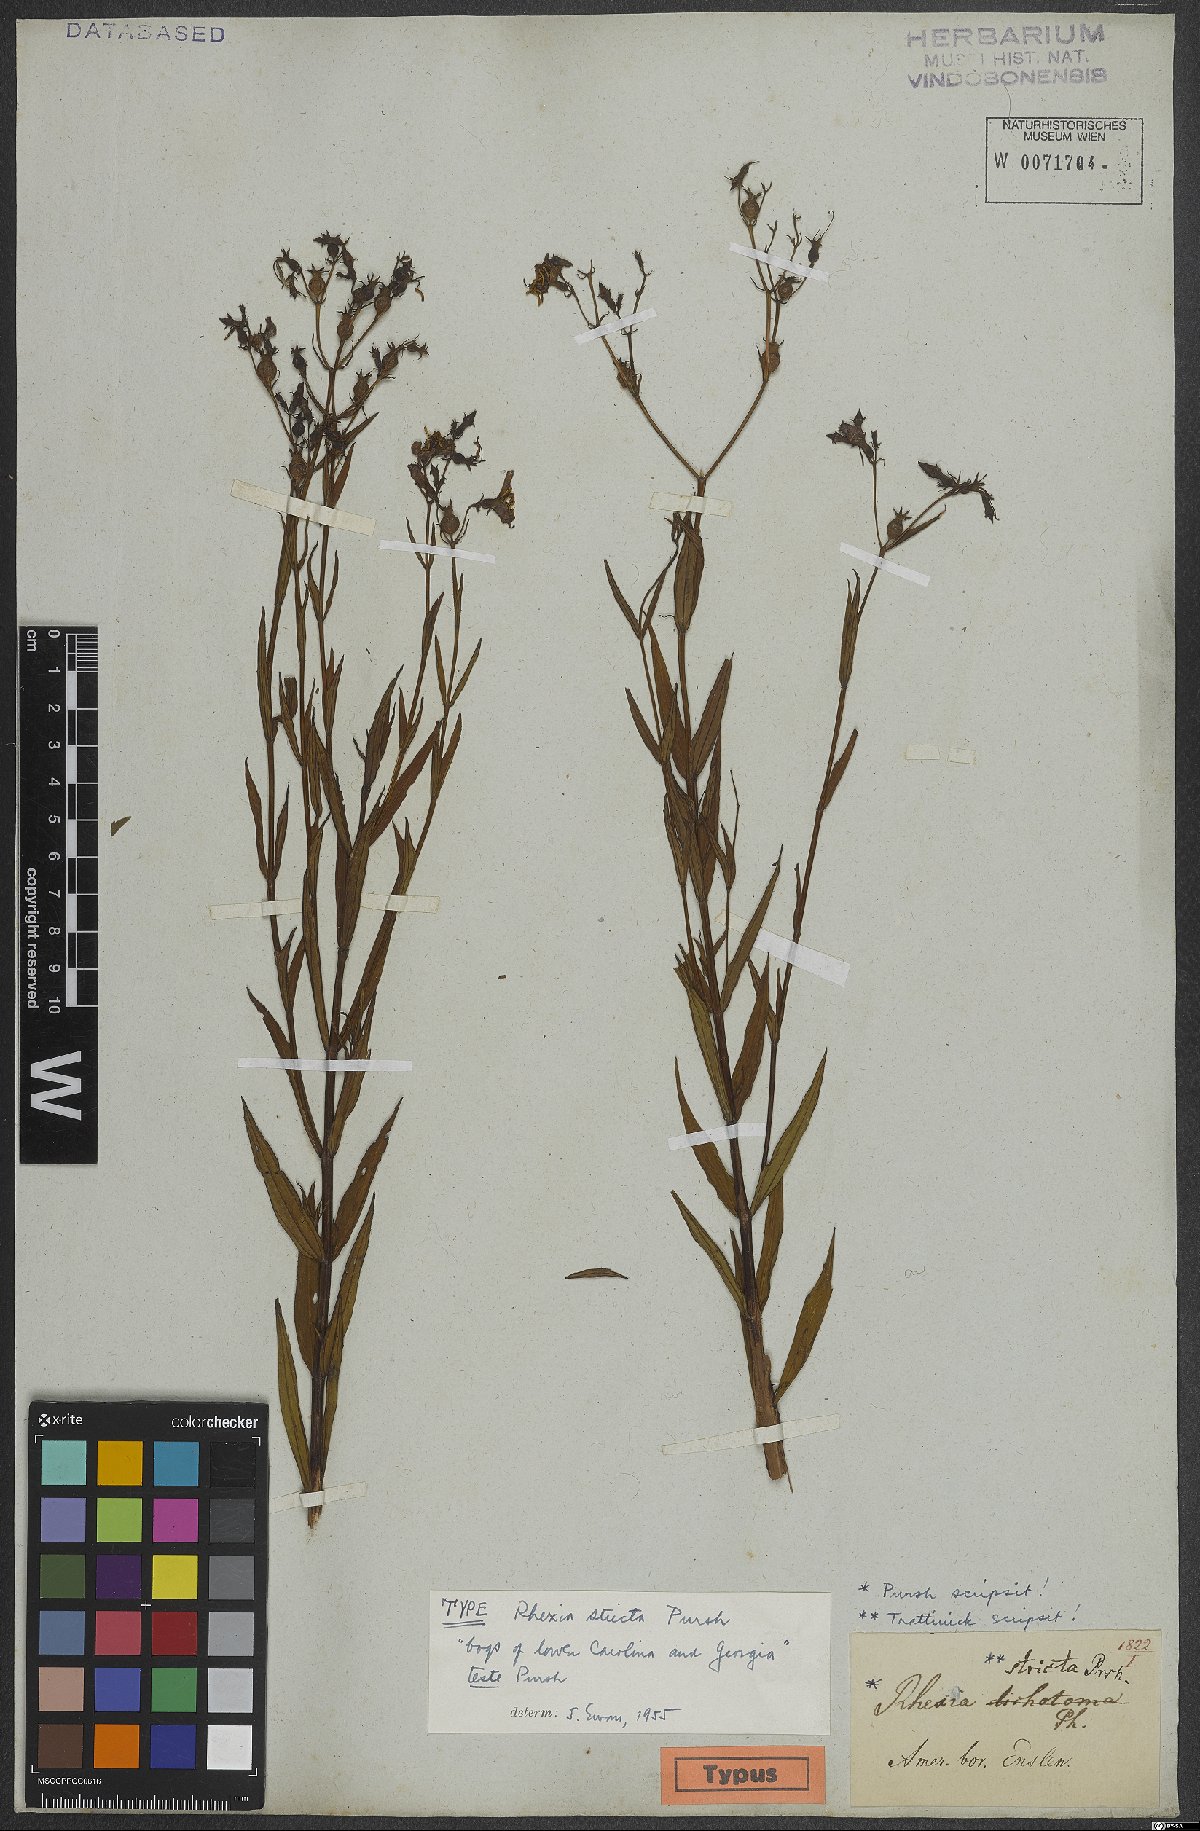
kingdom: Plantae
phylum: Tracheophyta
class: Magnoliopsida
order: Myrtales
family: Melastomataceae
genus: Rhexia
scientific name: Rhexia virginica
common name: Common meadow beauty
